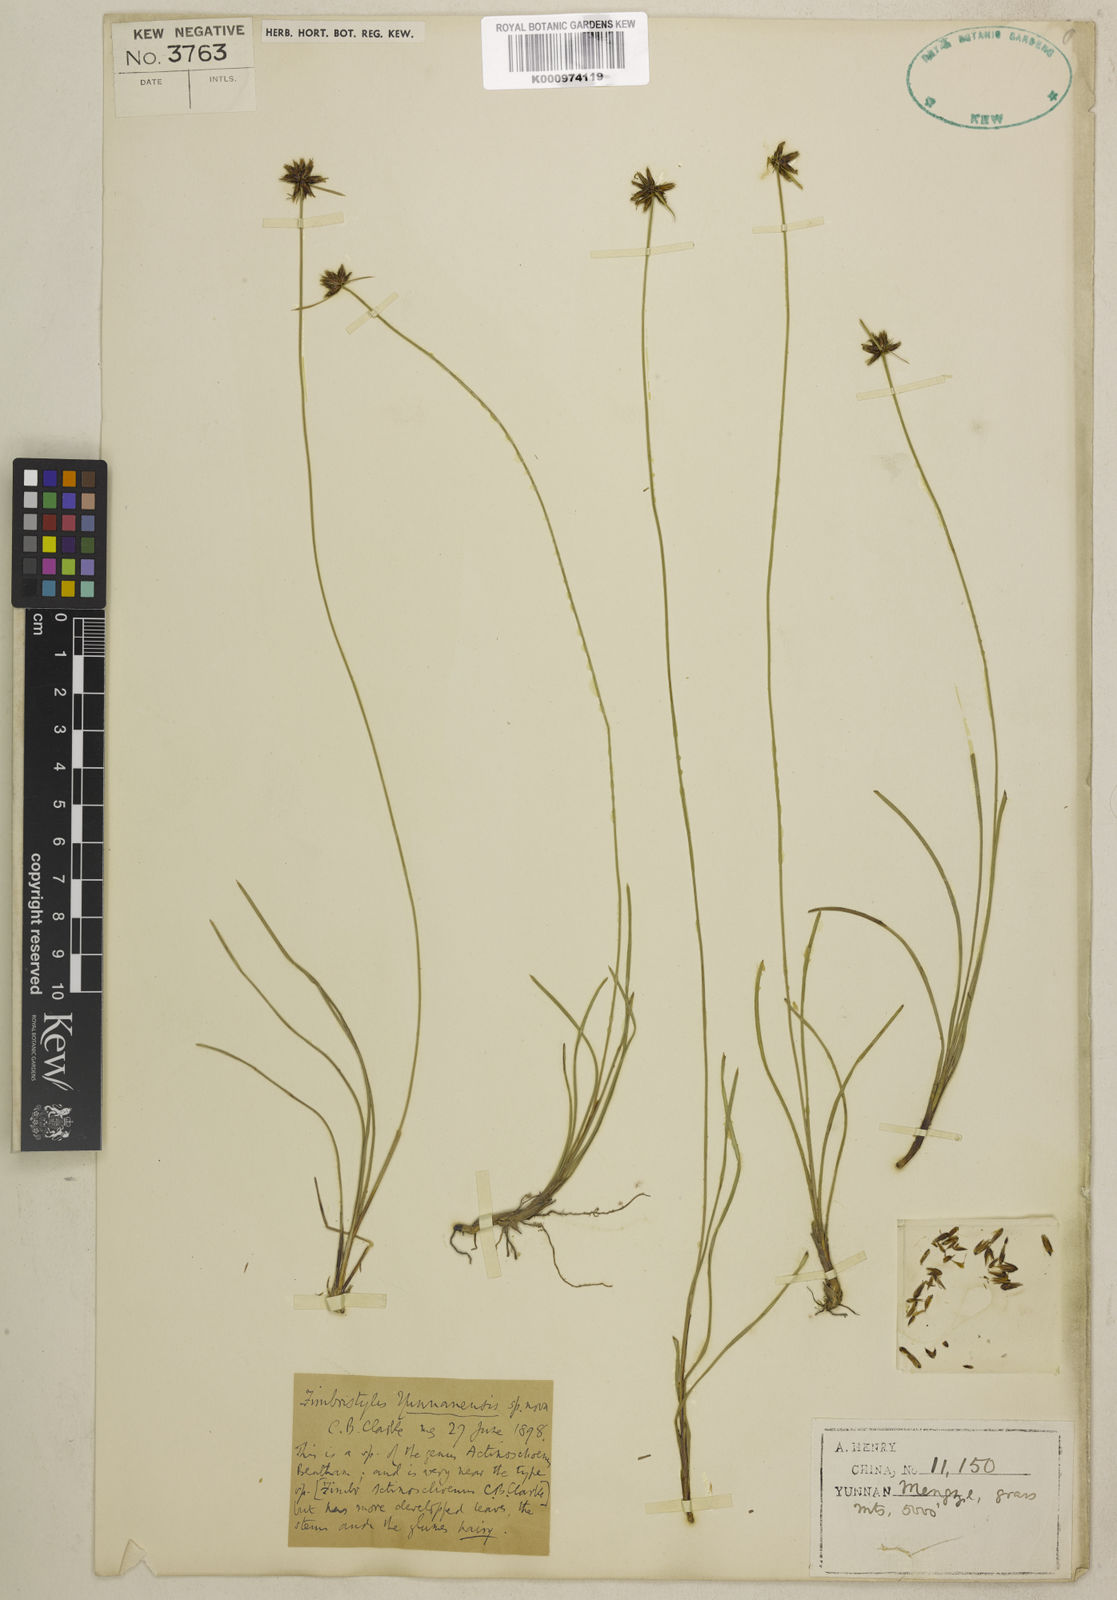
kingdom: Plantae
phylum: Tracheophyta
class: Liliopsida
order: Poales
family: Cyperaceae
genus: Actinoschoenus
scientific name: Actinoschoenus yunnanensis
